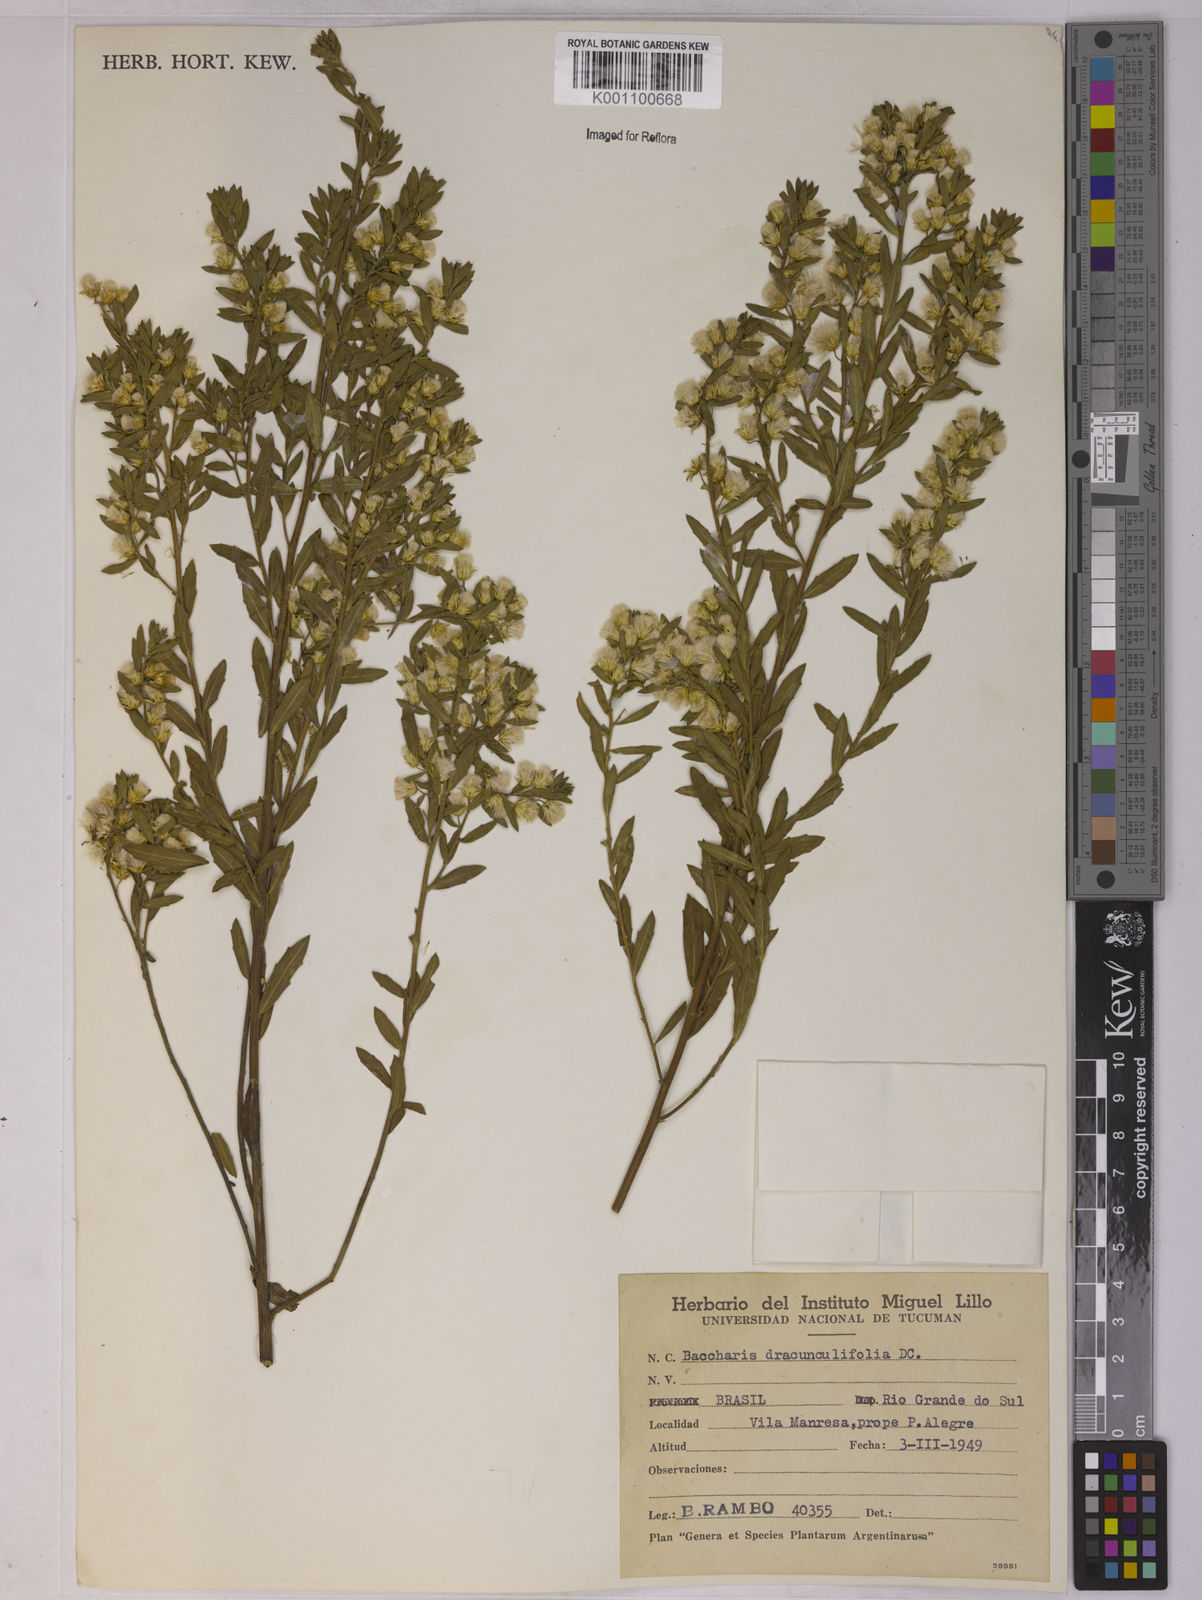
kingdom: Plantae
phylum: Tracheophyta
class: Magnoliopsida
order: Asterales
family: Asteraceae
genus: Baccharis
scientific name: Baccharis dracunculifolia
